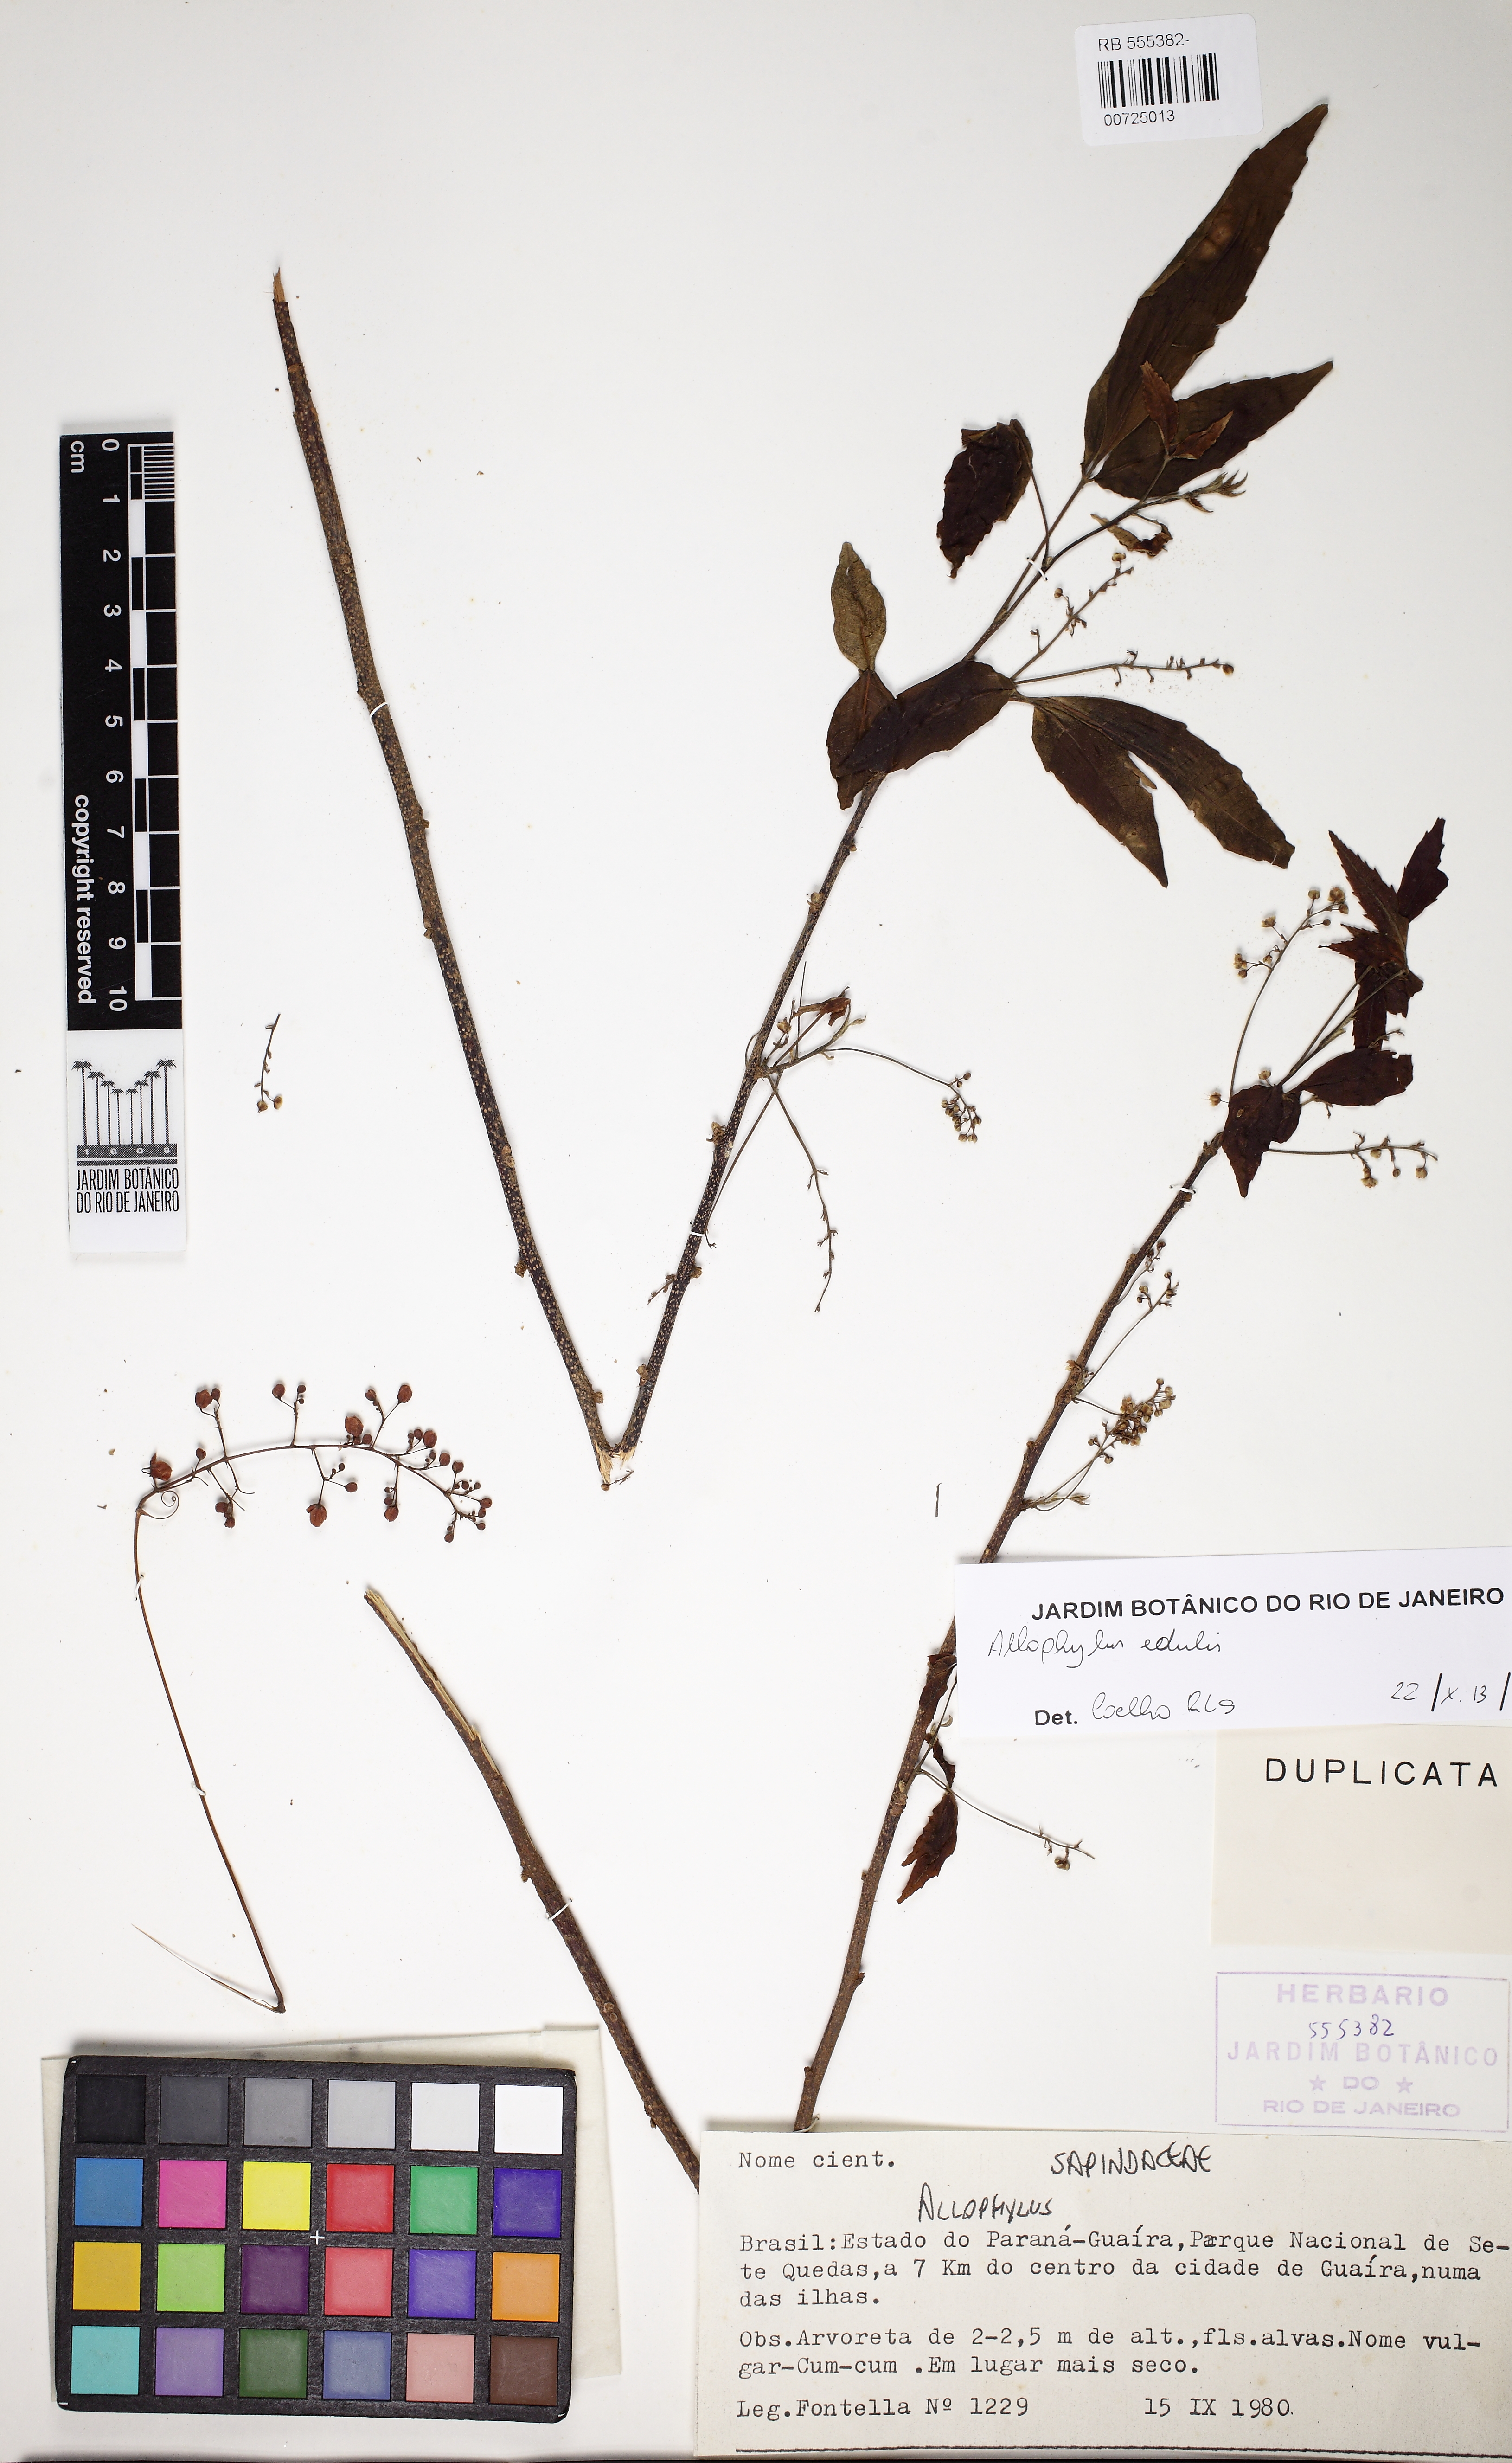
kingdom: Plantae
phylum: Tracheophyta
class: Magnoliopsida
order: Sapindales
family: Sapindaceae
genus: Allophylus
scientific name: Allophylus edulis
